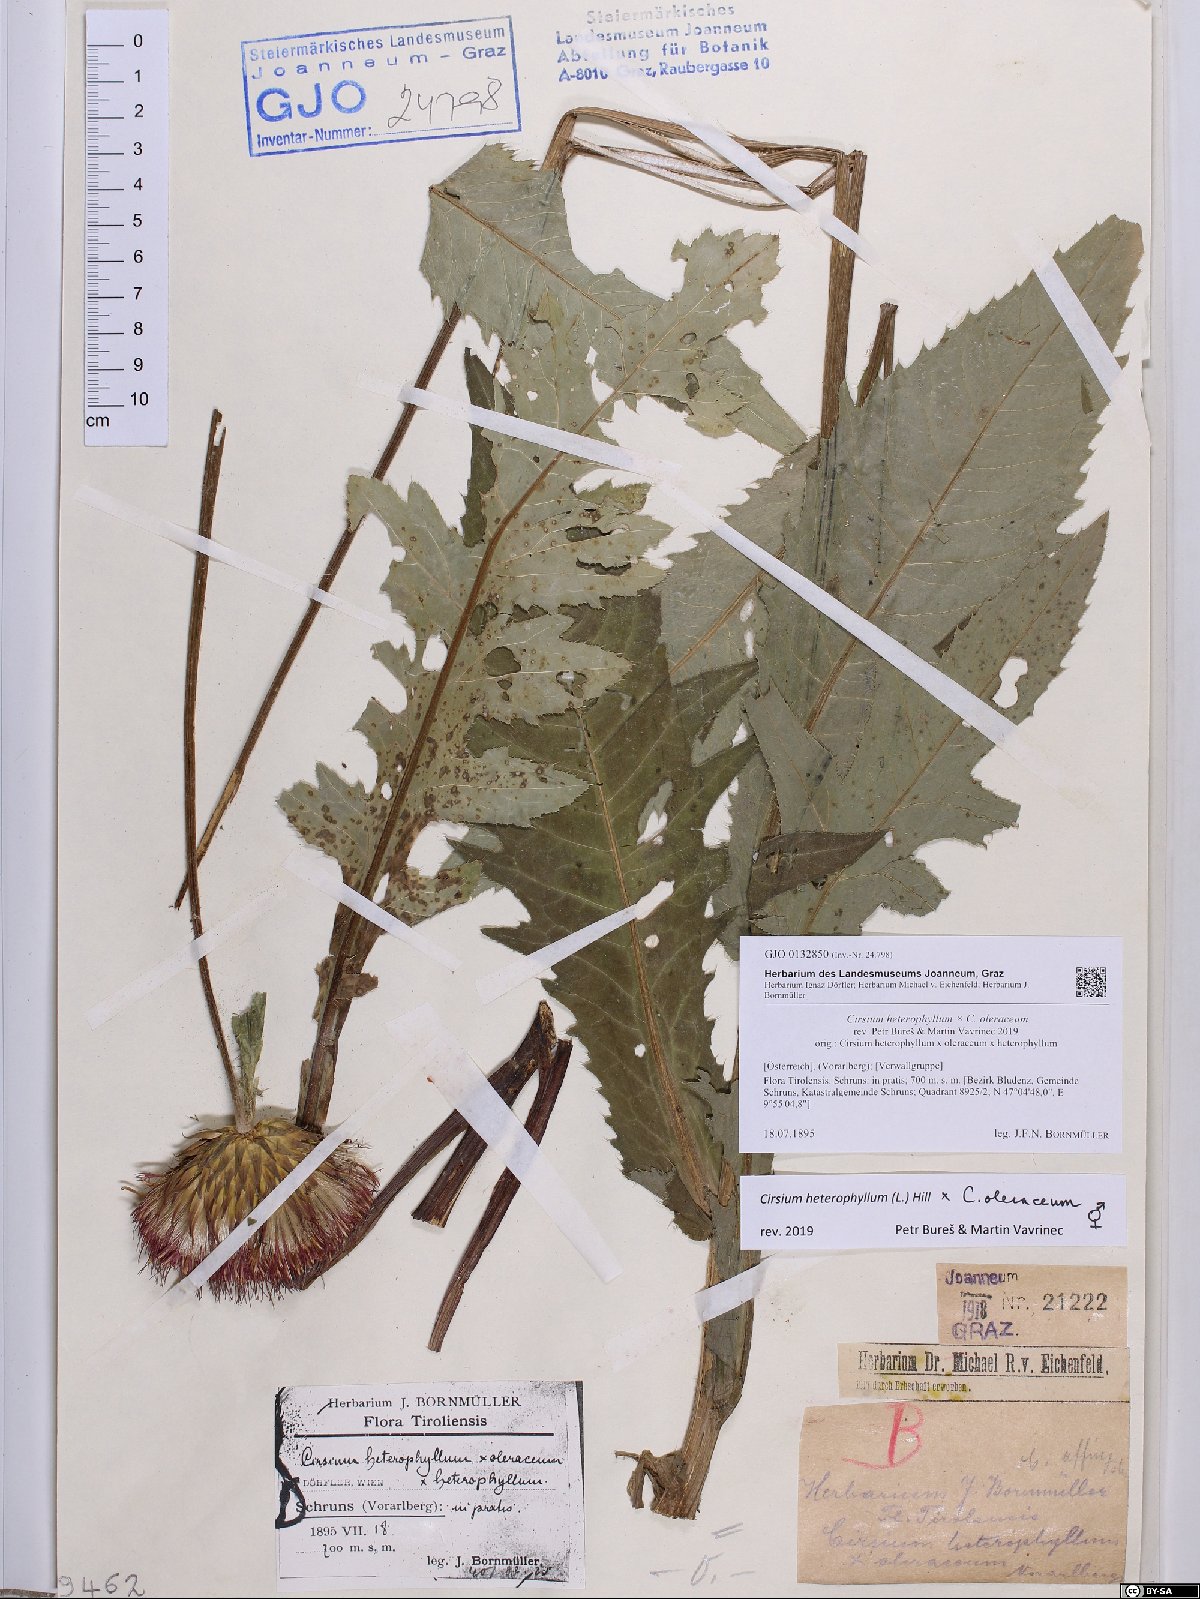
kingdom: Plantae
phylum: Tracheophyta
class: Magnoliopsida
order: Asterales
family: Asteraceae
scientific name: Asteraceae
